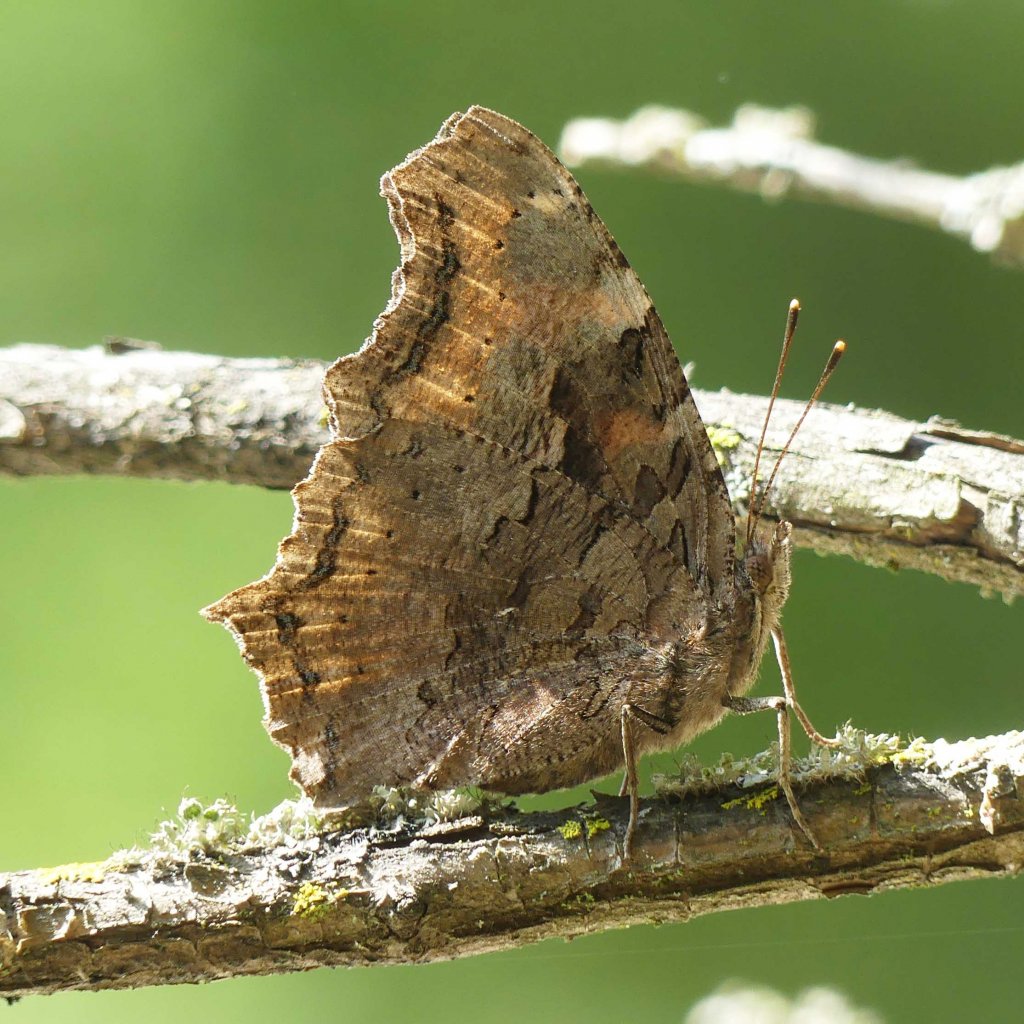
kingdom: Animalia
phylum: Arthropoda
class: Insecta
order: Lepidoptera
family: Nymphalidae
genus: Polygonia
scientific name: Polygonia vaualbum
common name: Compton Tortoiseshell
